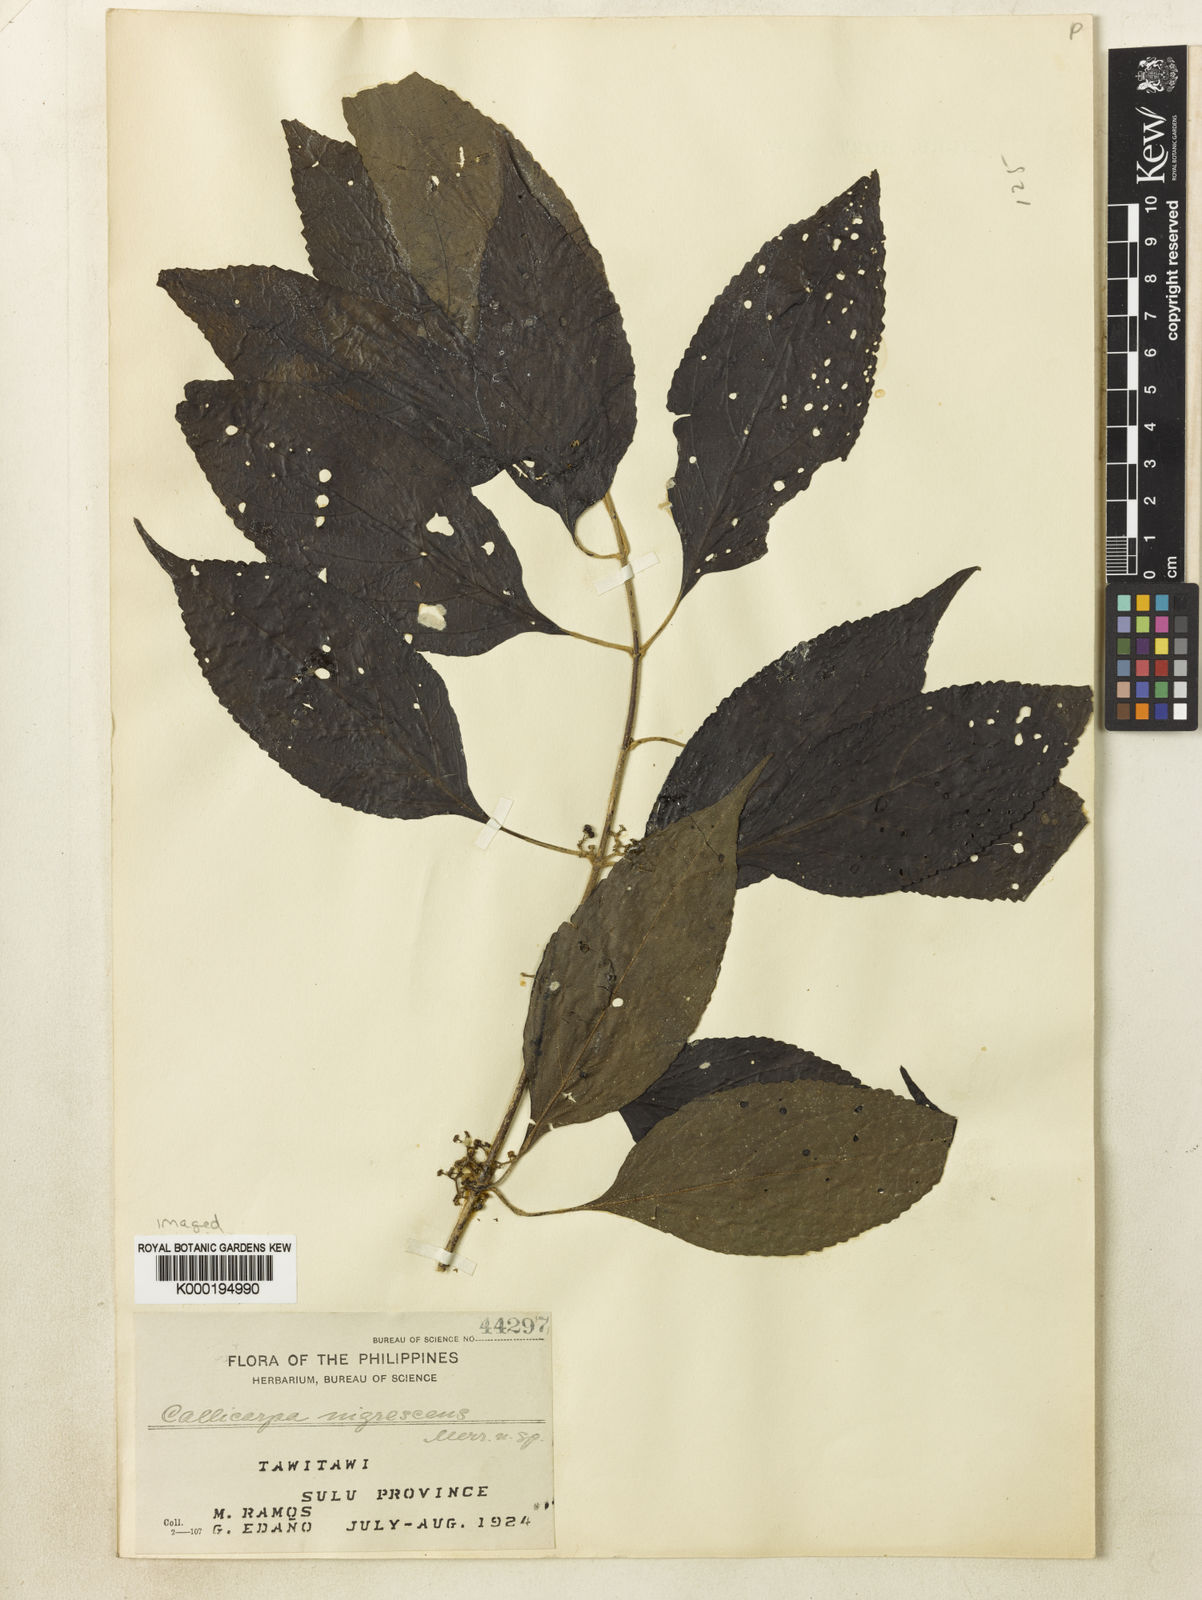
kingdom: Plantae
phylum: Tracheophyta
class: Magnoliopsida
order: Lamiales
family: Lamiaceae
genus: Callicarpa
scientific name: Callicarpa longifolia
